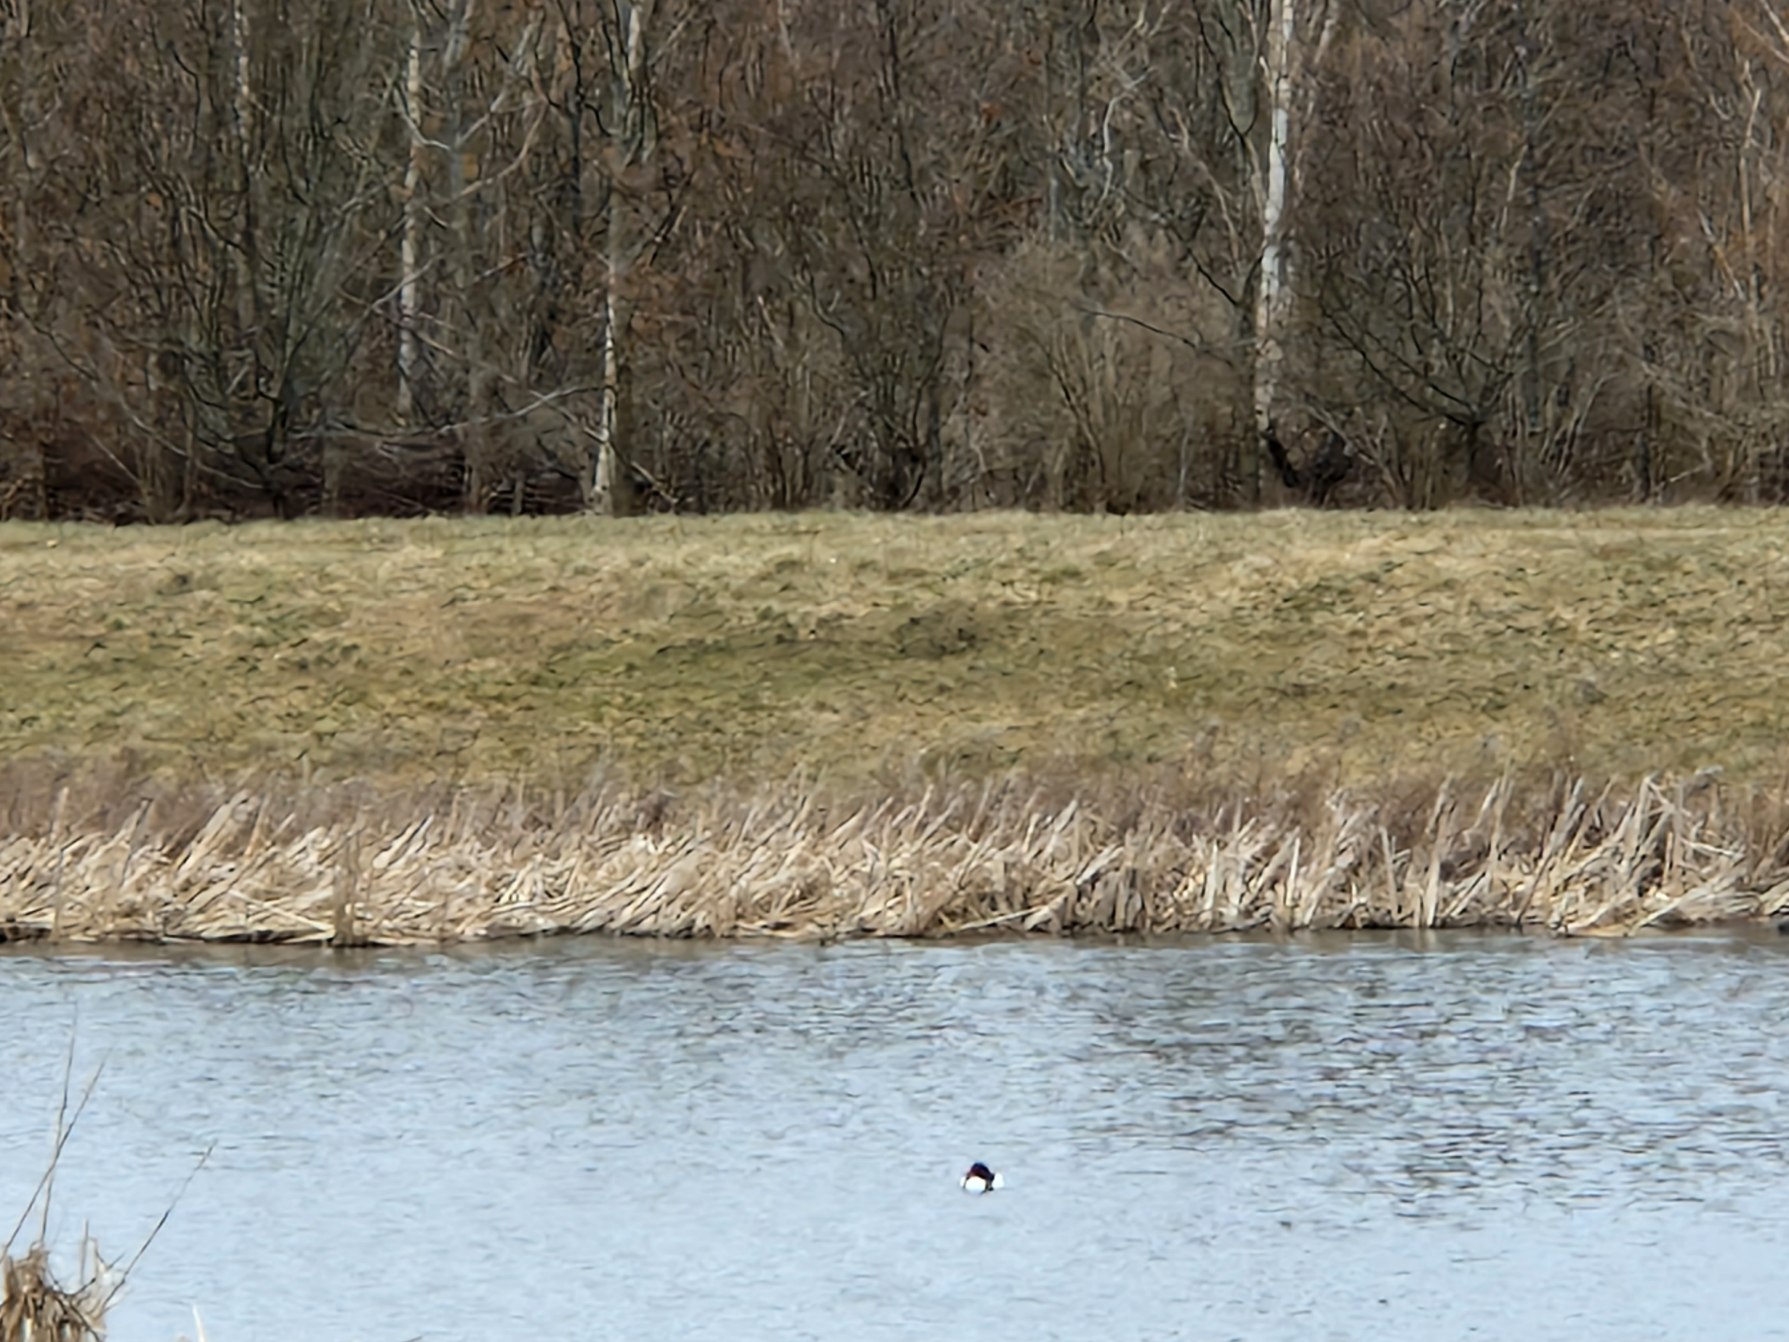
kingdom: Animalia
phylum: Chordata
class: Aves
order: Anseriformes
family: Anatidae
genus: Tadorna
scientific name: Tadorna tadorna
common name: Gravand
